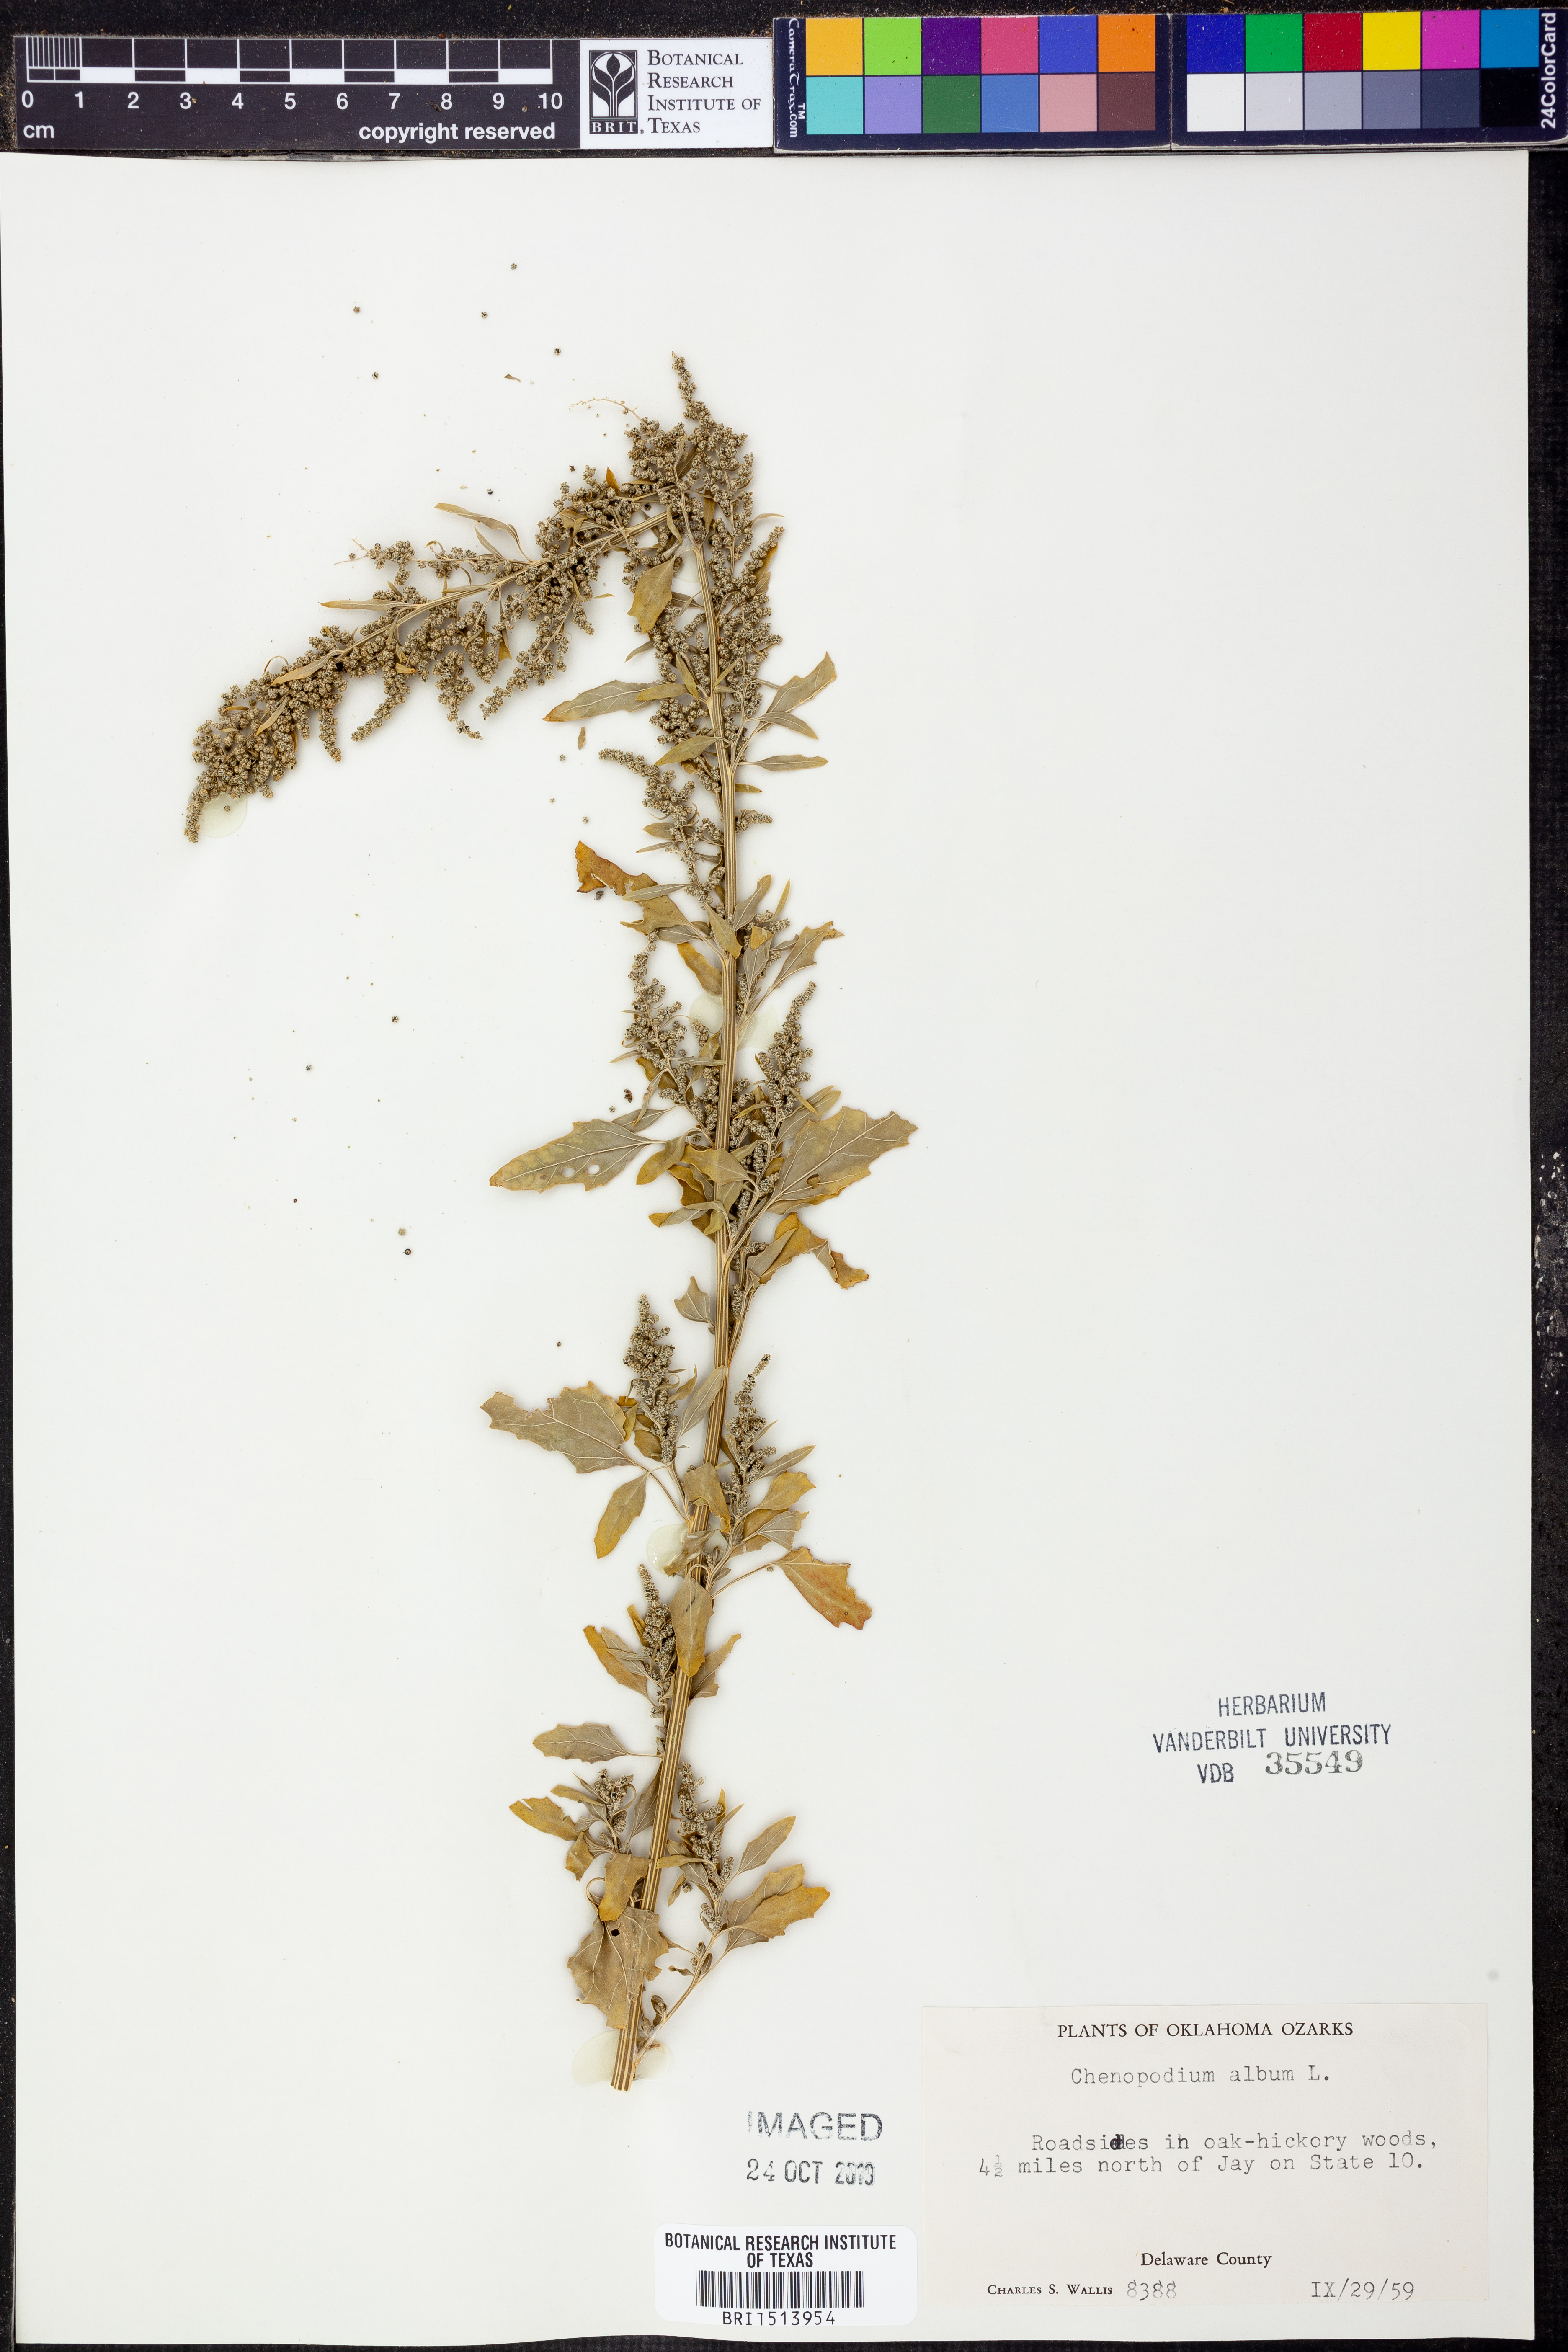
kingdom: Plantae
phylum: Tracheophyta
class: Magnoliopsida
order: Caryophyllales
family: Amaranthaceae
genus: Chenopodium
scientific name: Chenopodium album
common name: Fat-hen
